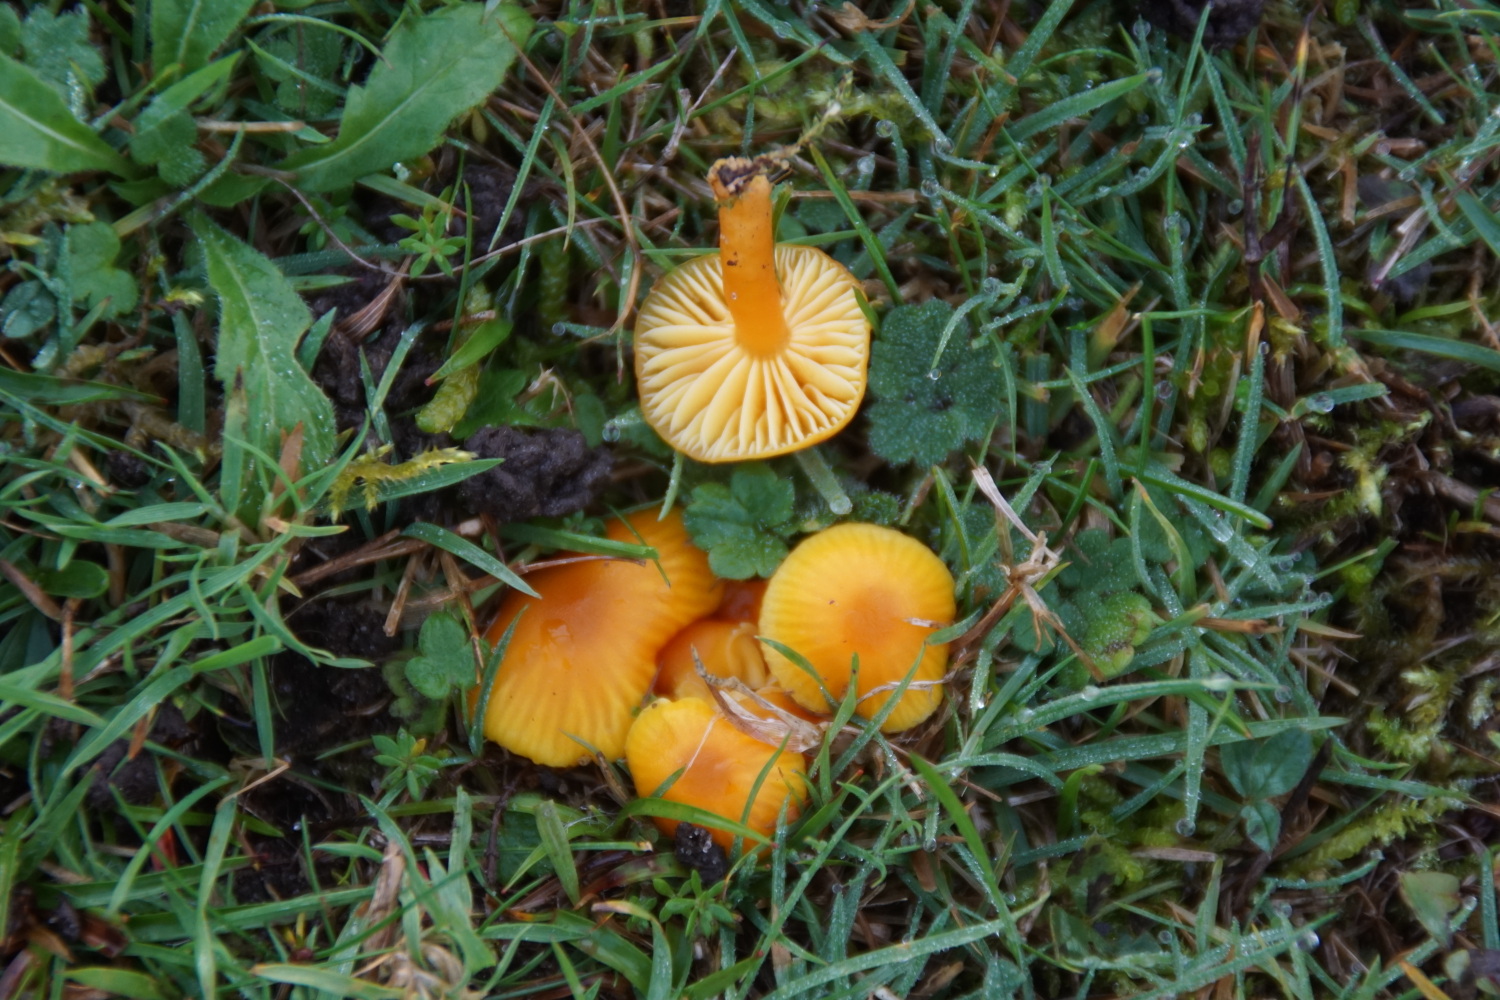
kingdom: Fungi
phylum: Basidiomycota
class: Agaricomycetes
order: Agaricales
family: Hygrophoraceae
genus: Hygrocybe
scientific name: Hygrocybe ceracea
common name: voksgul vokshat
